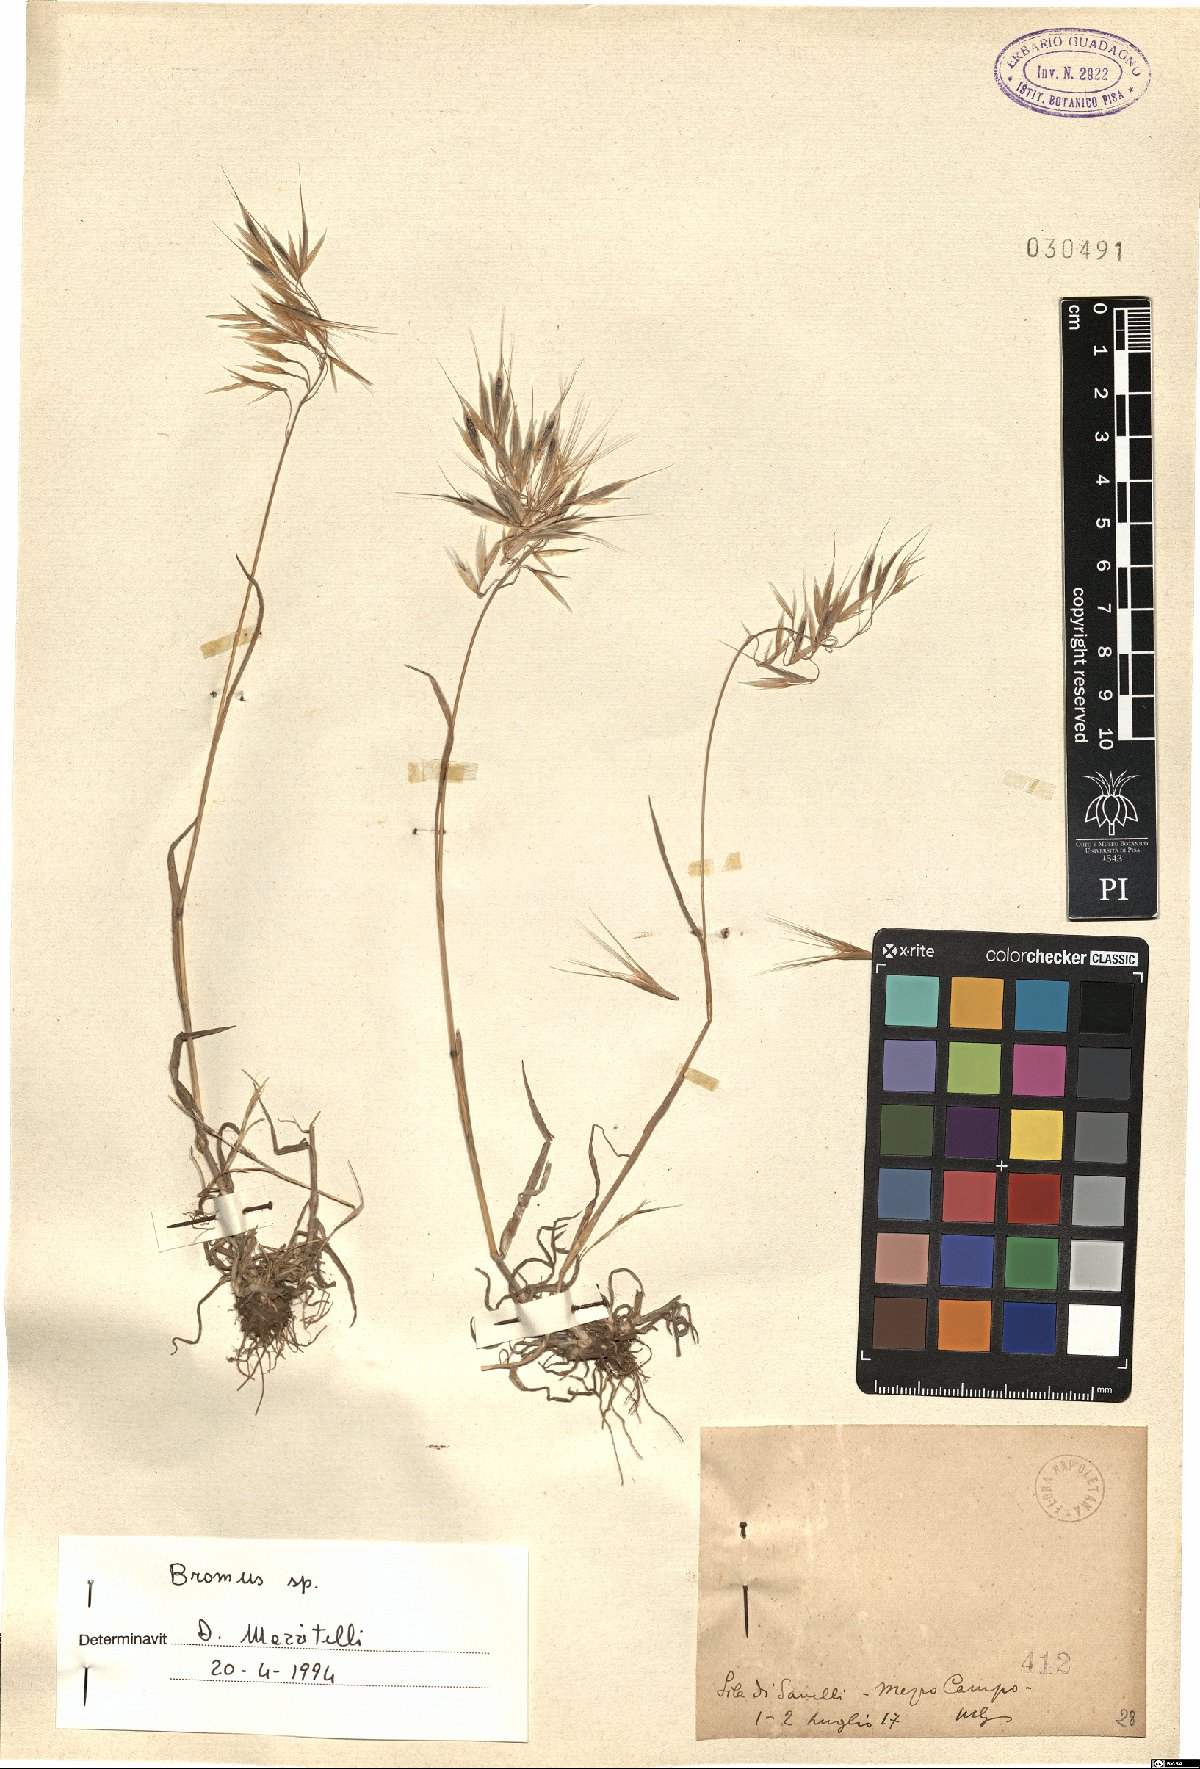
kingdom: Plantae
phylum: Tracheophyta
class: Liliopsida
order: Poales
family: Poaceae
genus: Bromus
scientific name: Bromus
